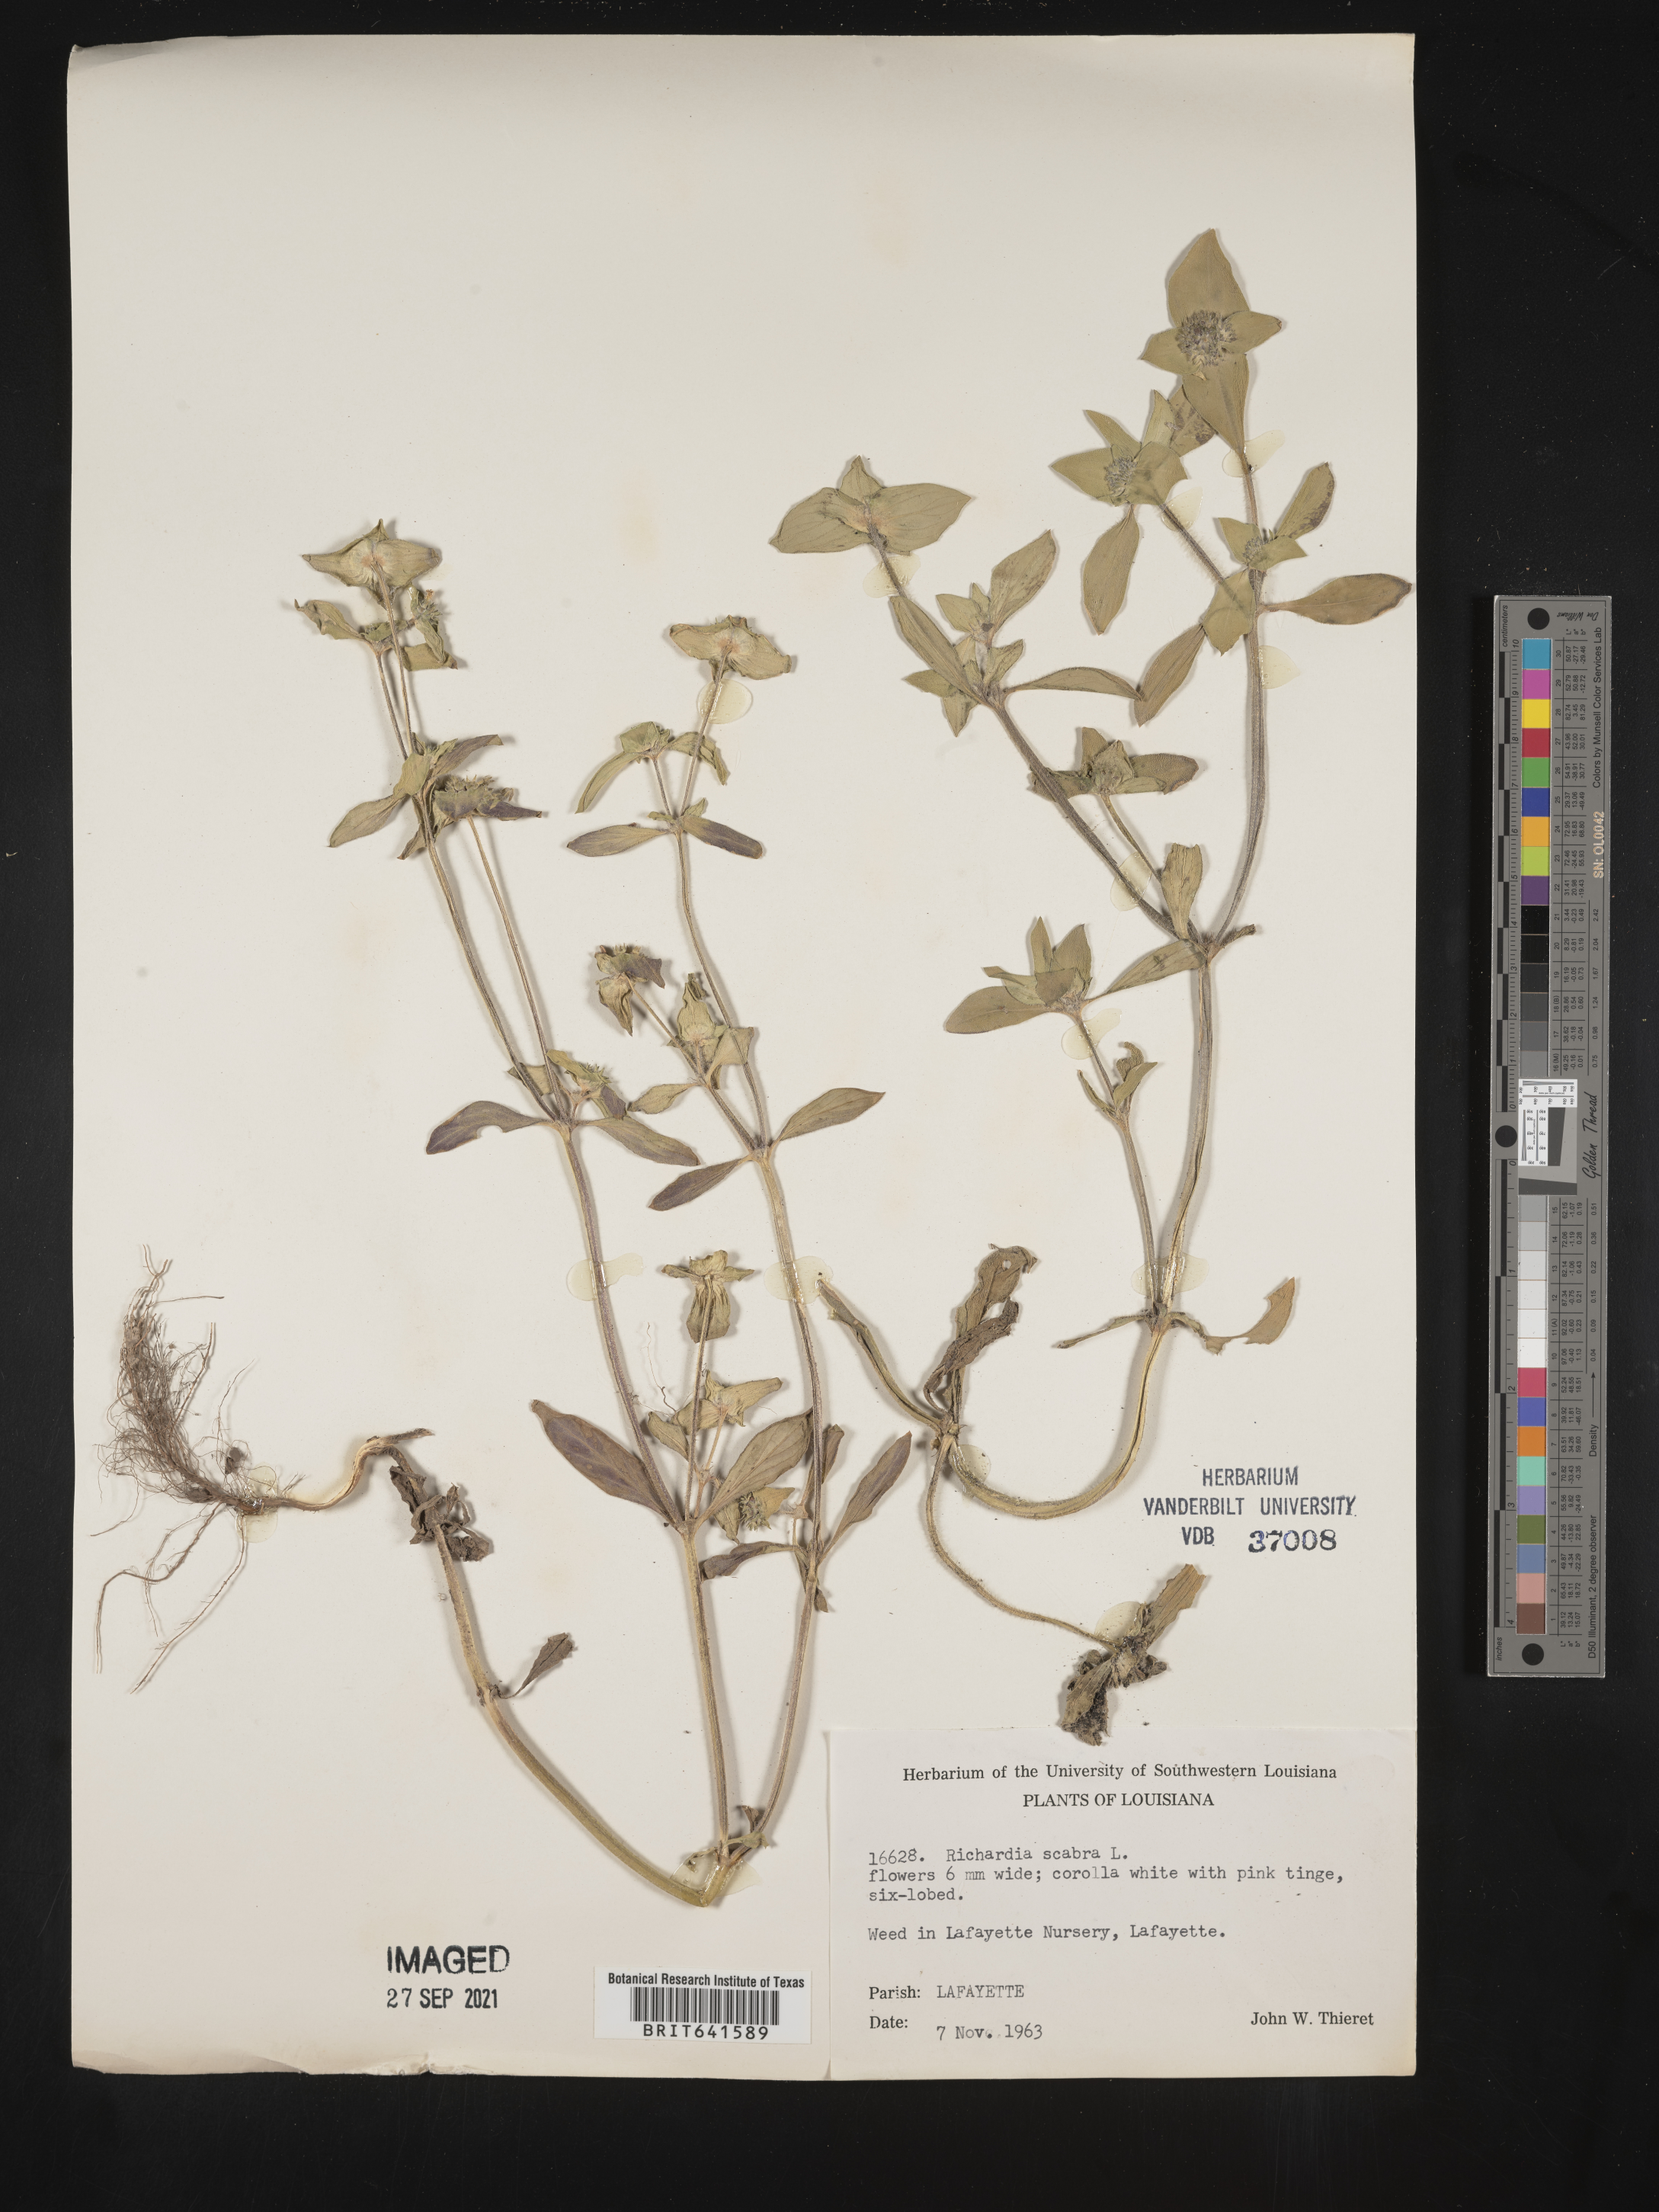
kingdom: Plantae
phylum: Tracheophyta
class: Magnoliopsida
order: Gentianales
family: Rubiaceae
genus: Richardia
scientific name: Richardia scabra
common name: Rough mexican clover
